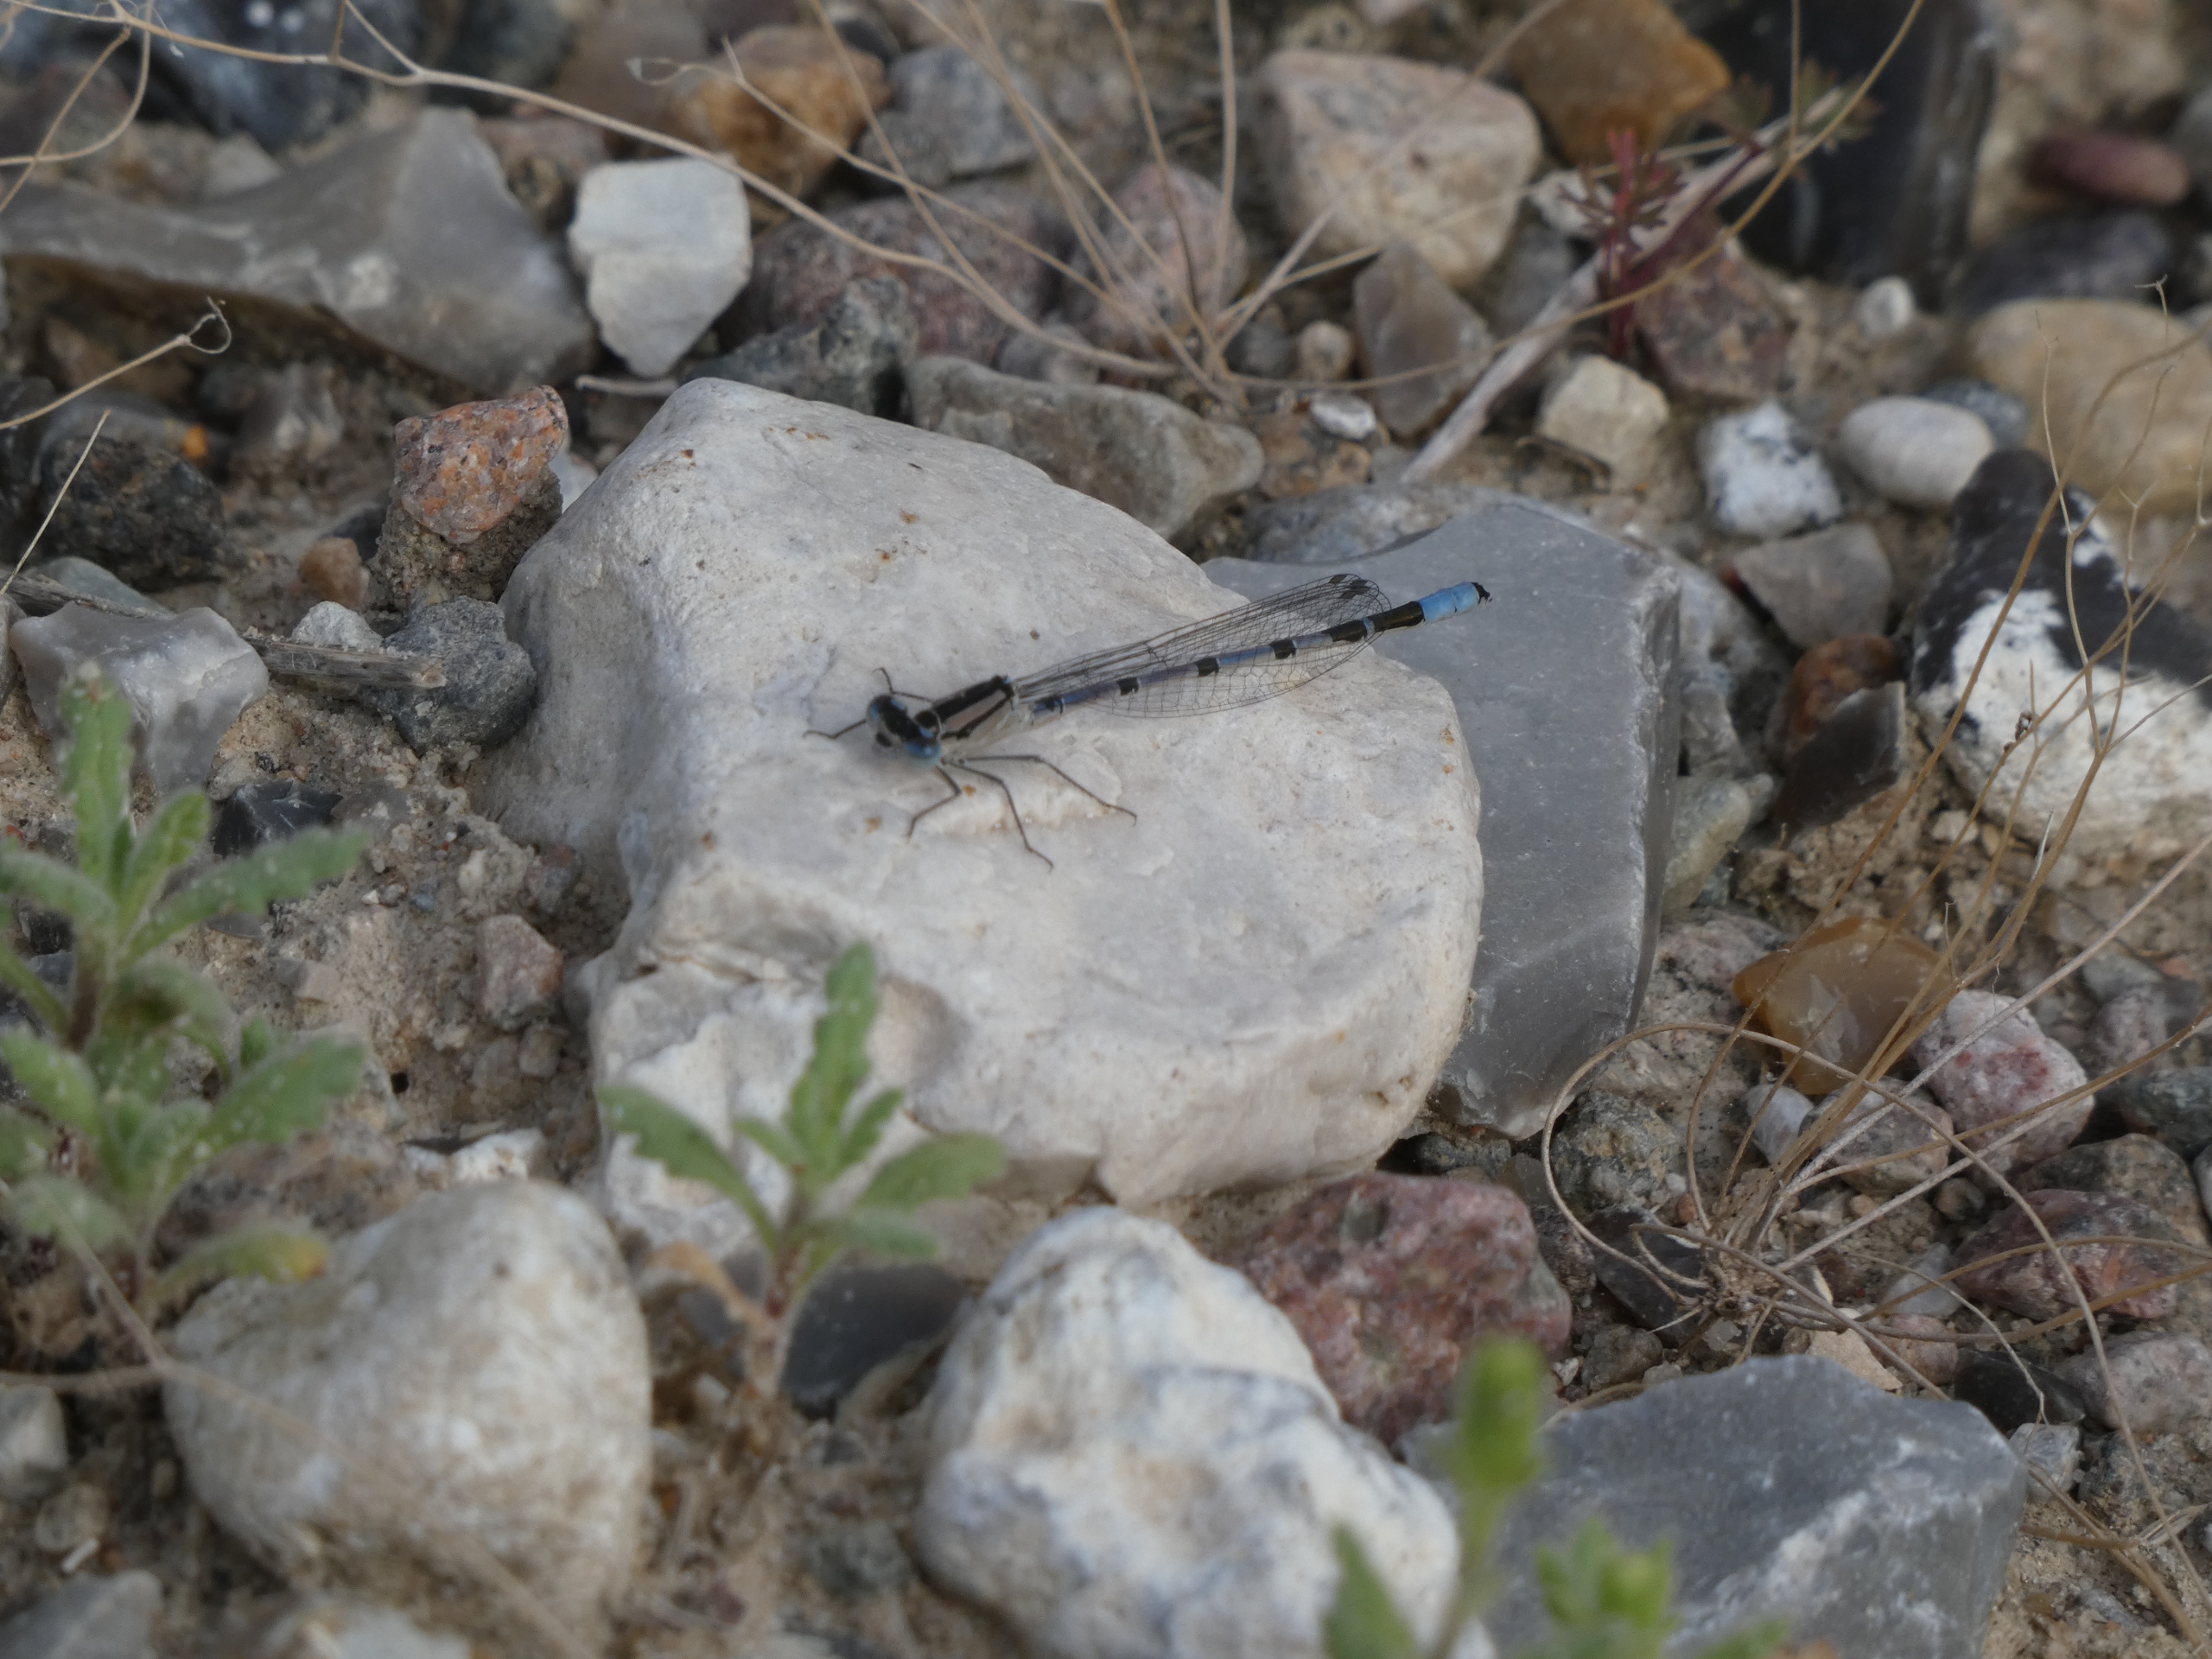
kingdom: Animalia
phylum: Arthropoda
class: Insecta
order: Odonata
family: Coenagrionidae
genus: Enallagma
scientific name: Enallagma cyathigerum
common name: Almindelig vandnymfe
